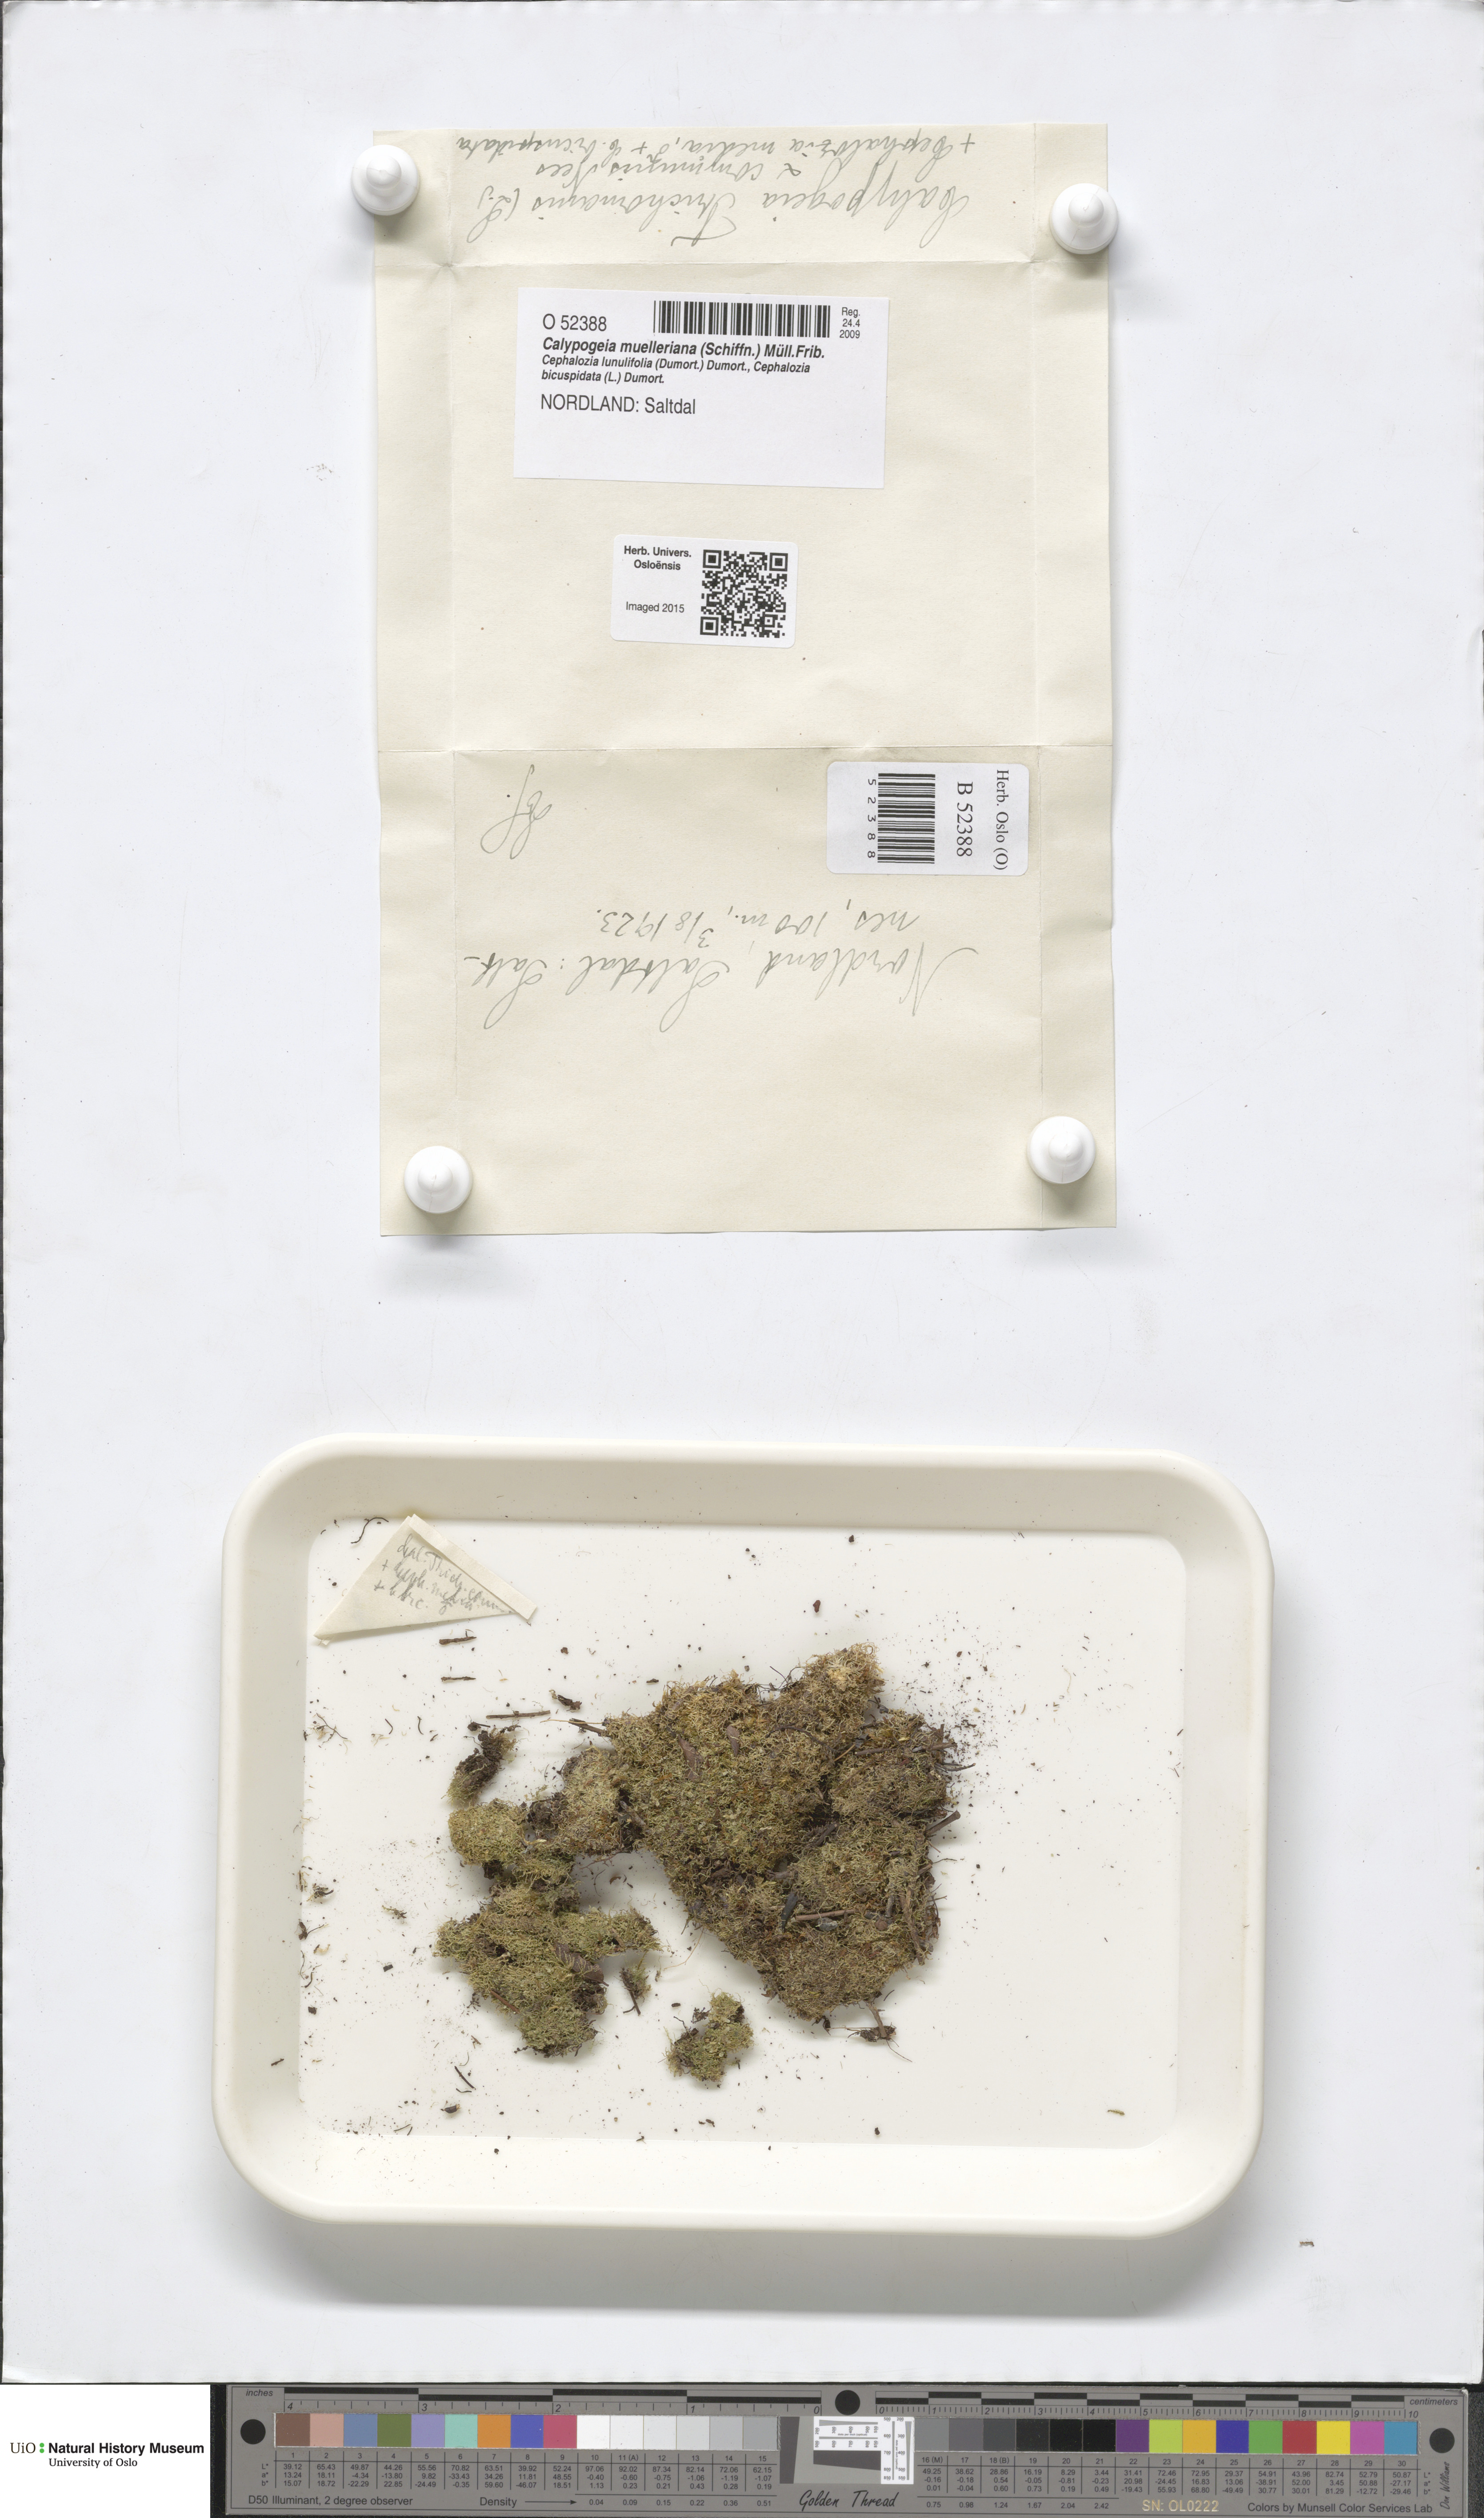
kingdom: Plantae
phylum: Marchantiophyta
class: Jungermanniopsida
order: Jungermanniales
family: Calypogeiaceae
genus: Calypogeia
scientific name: Calypogeia muelleriana
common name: Mueller s pouchwort
